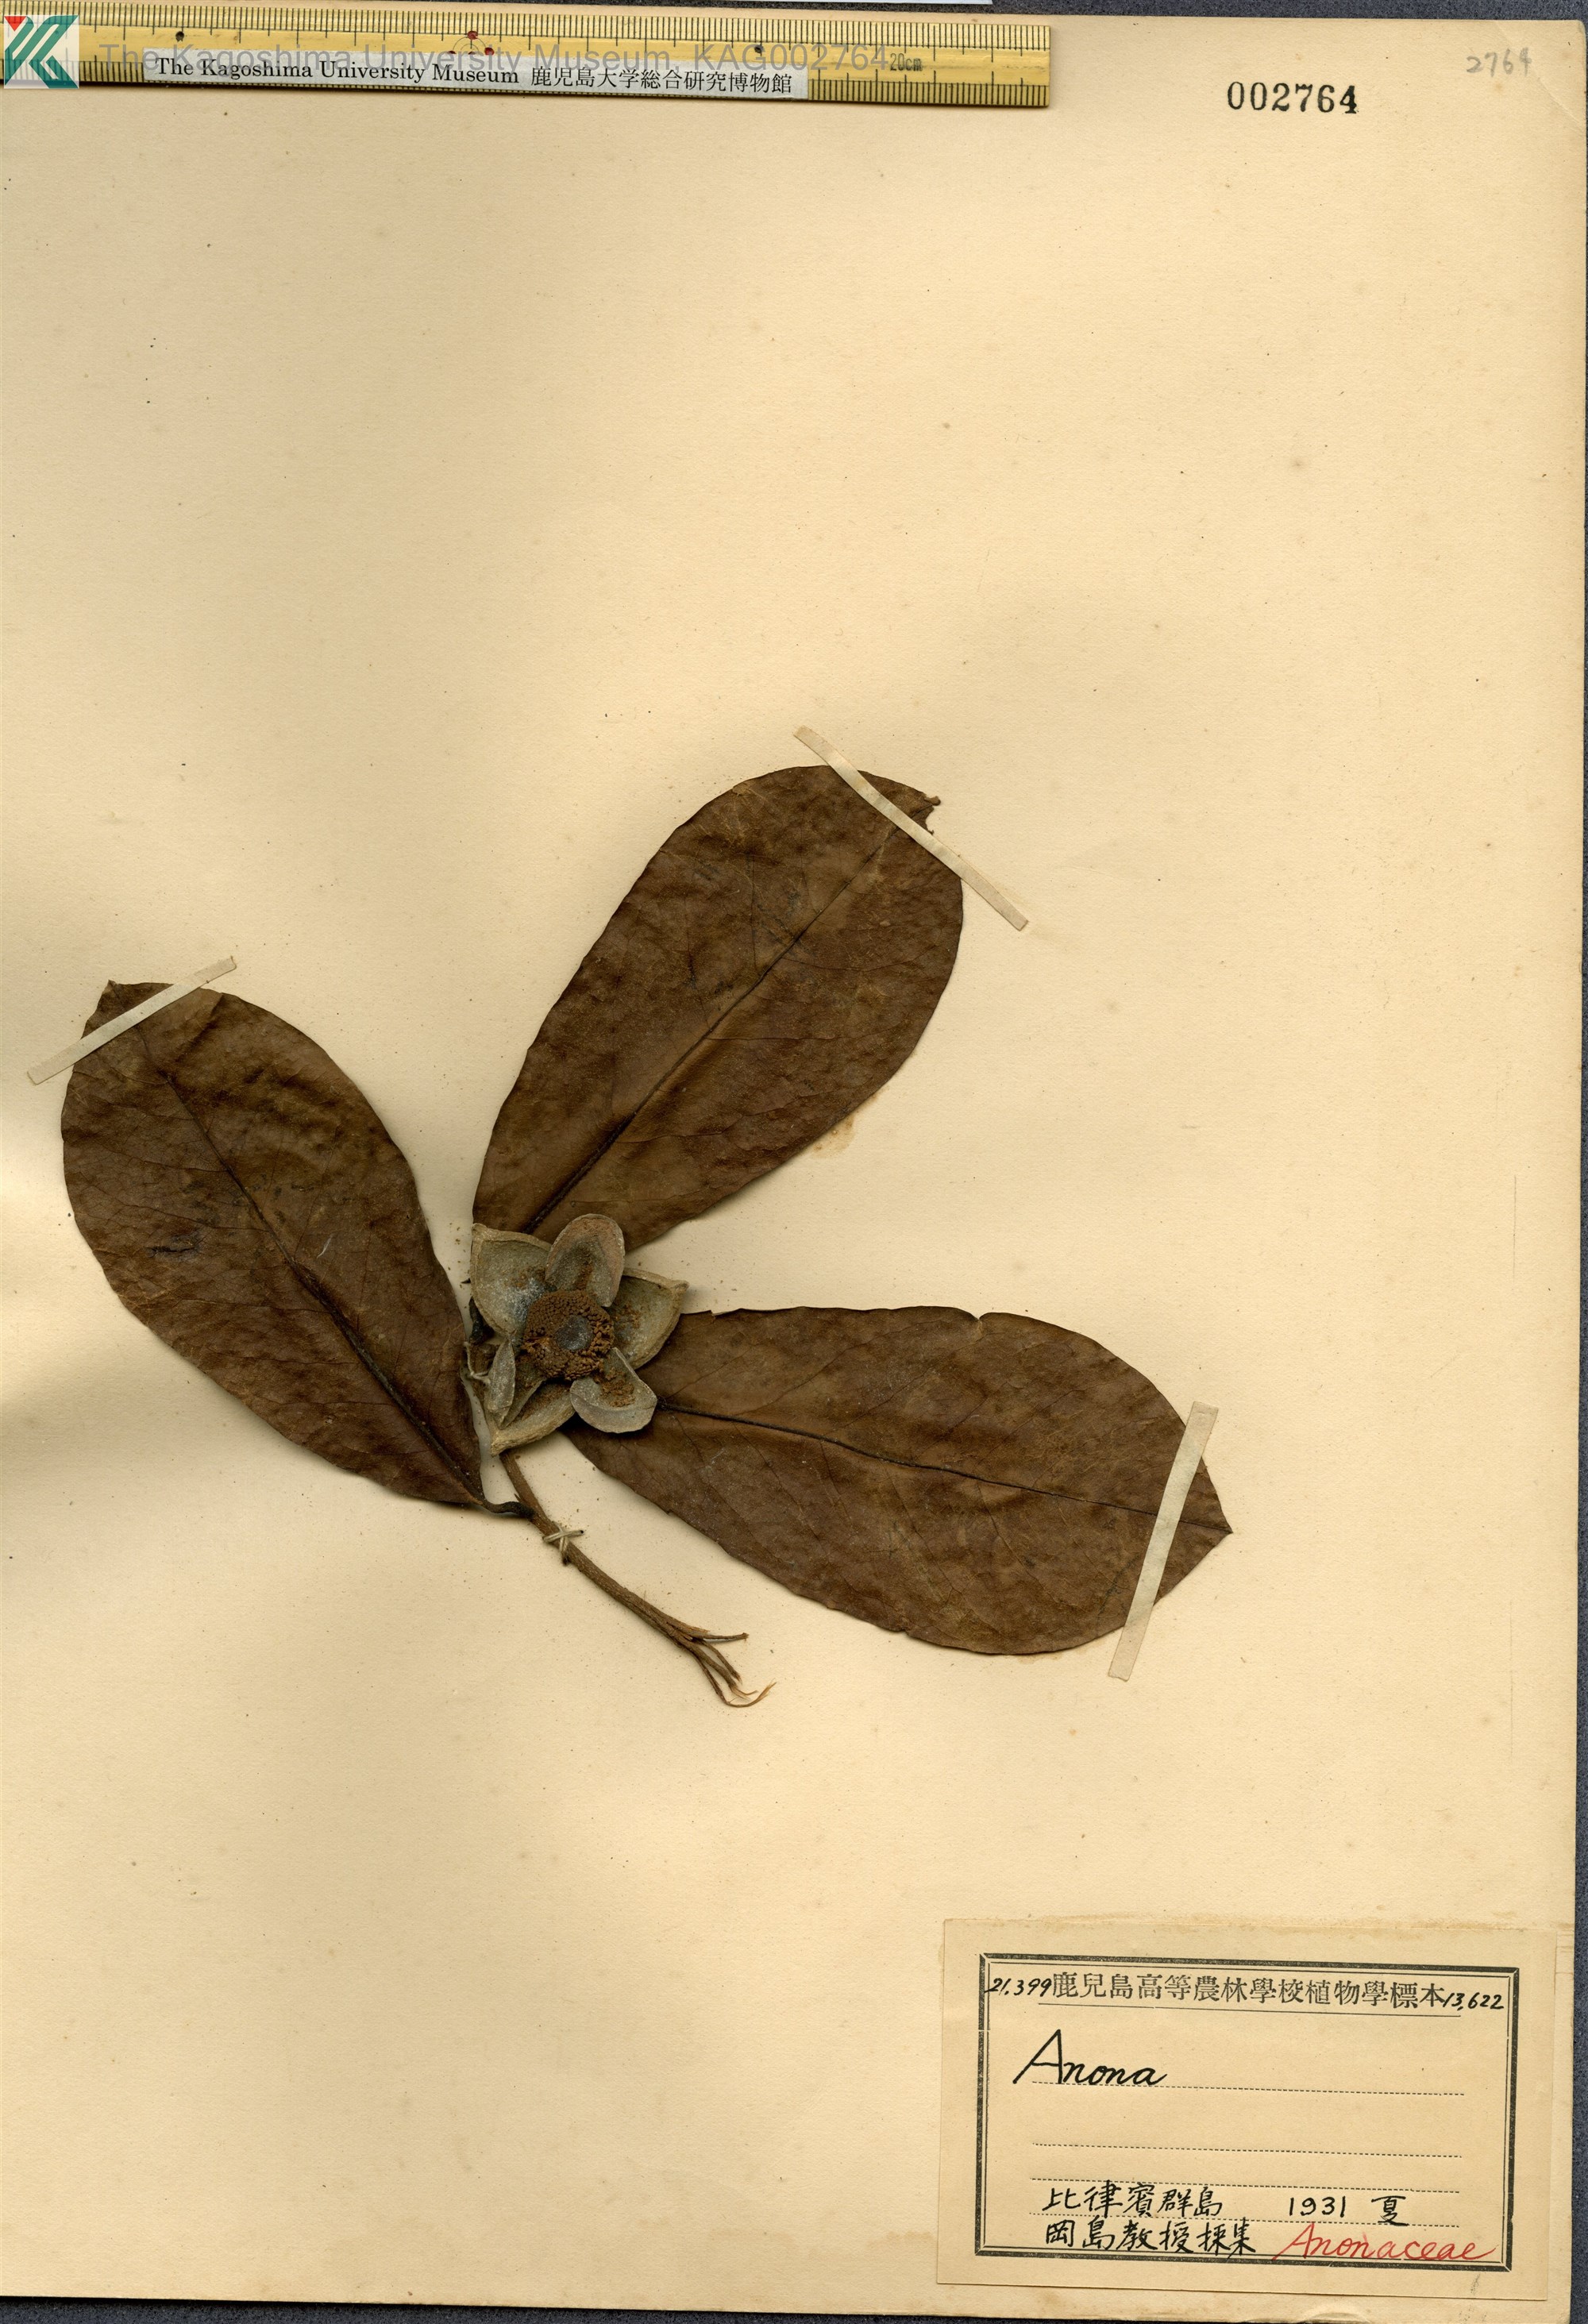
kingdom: Plantae
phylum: Tracheophyta
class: Magnoliopsida
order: Magnoliales
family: Annonaceae
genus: Annona
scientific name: Annona
